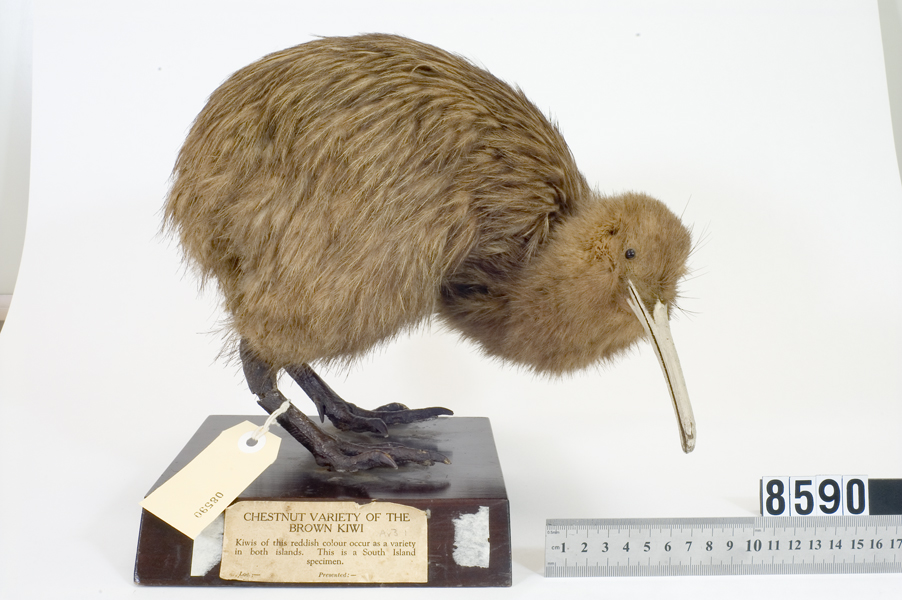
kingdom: Animalia
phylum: Chordata
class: Aves
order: Apterygiformes
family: Apterygidae
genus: Apteryx
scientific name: Apteryx australis
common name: Southern brown kiwi
